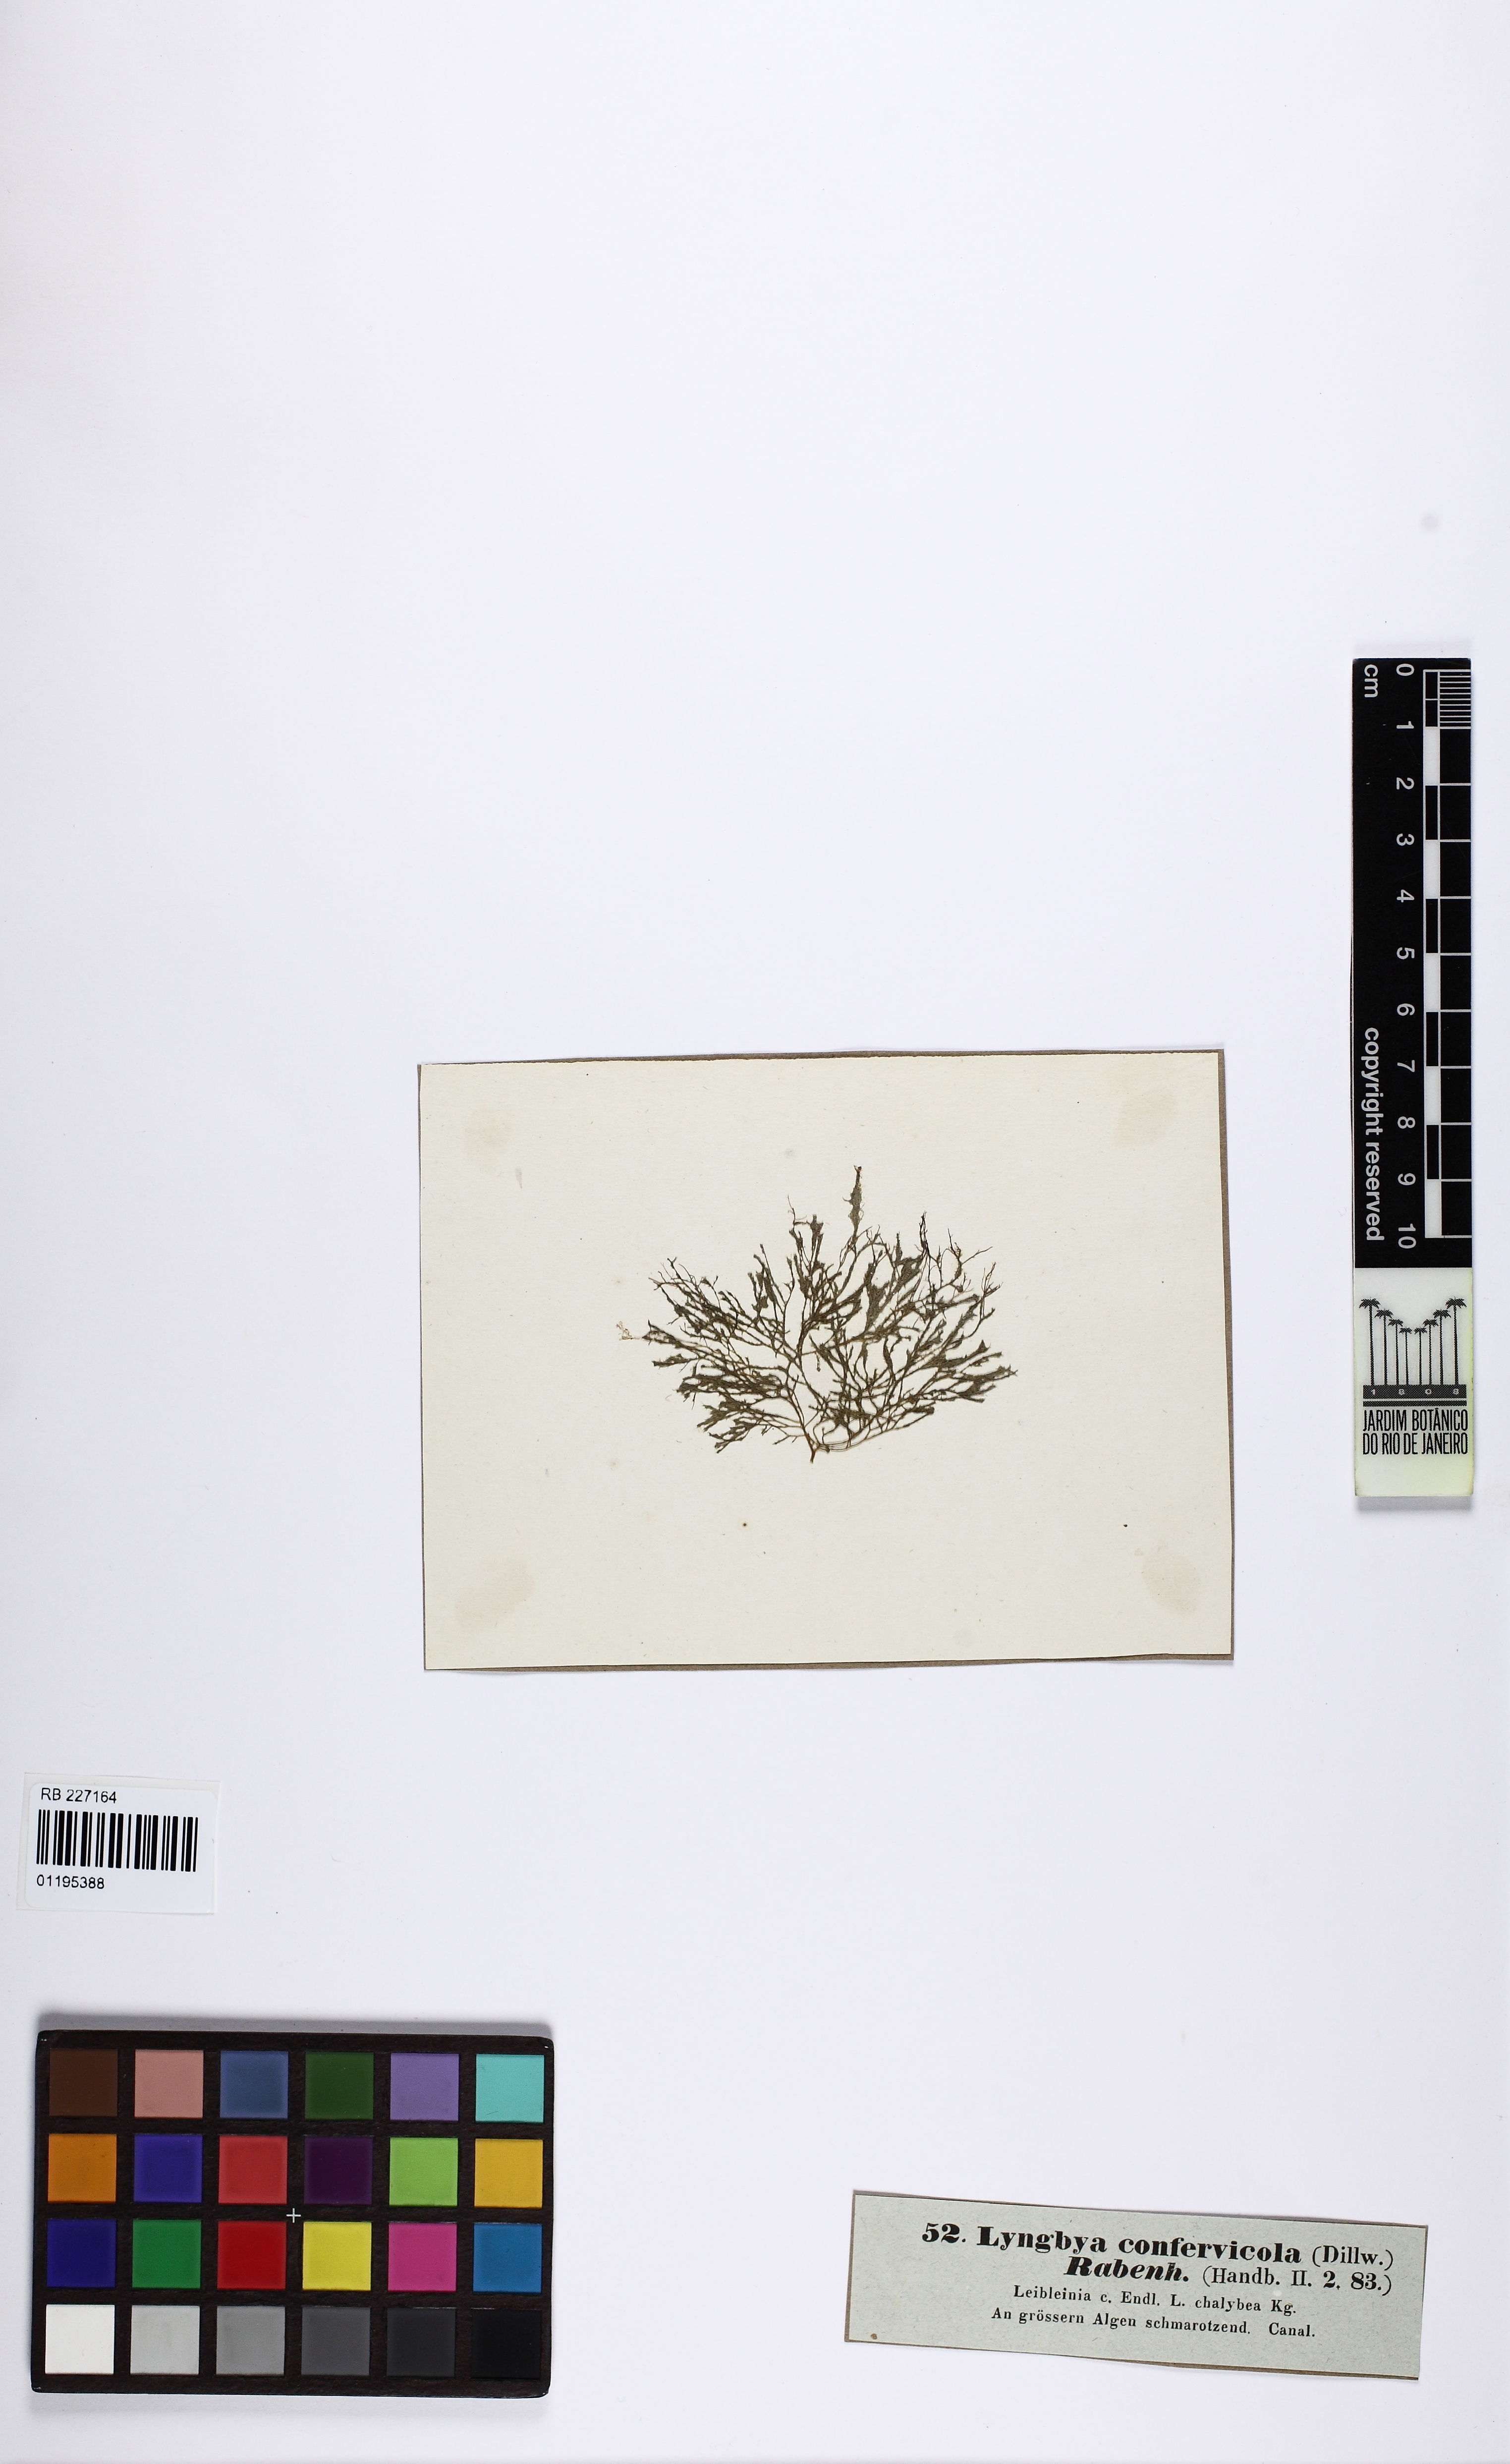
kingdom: Bacteria
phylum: Cyanobacteria
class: Cyanobacteriia
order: Cyanobacteriales
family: Nostocaceae
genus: Calothrix
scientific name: Calothrix confervicola
